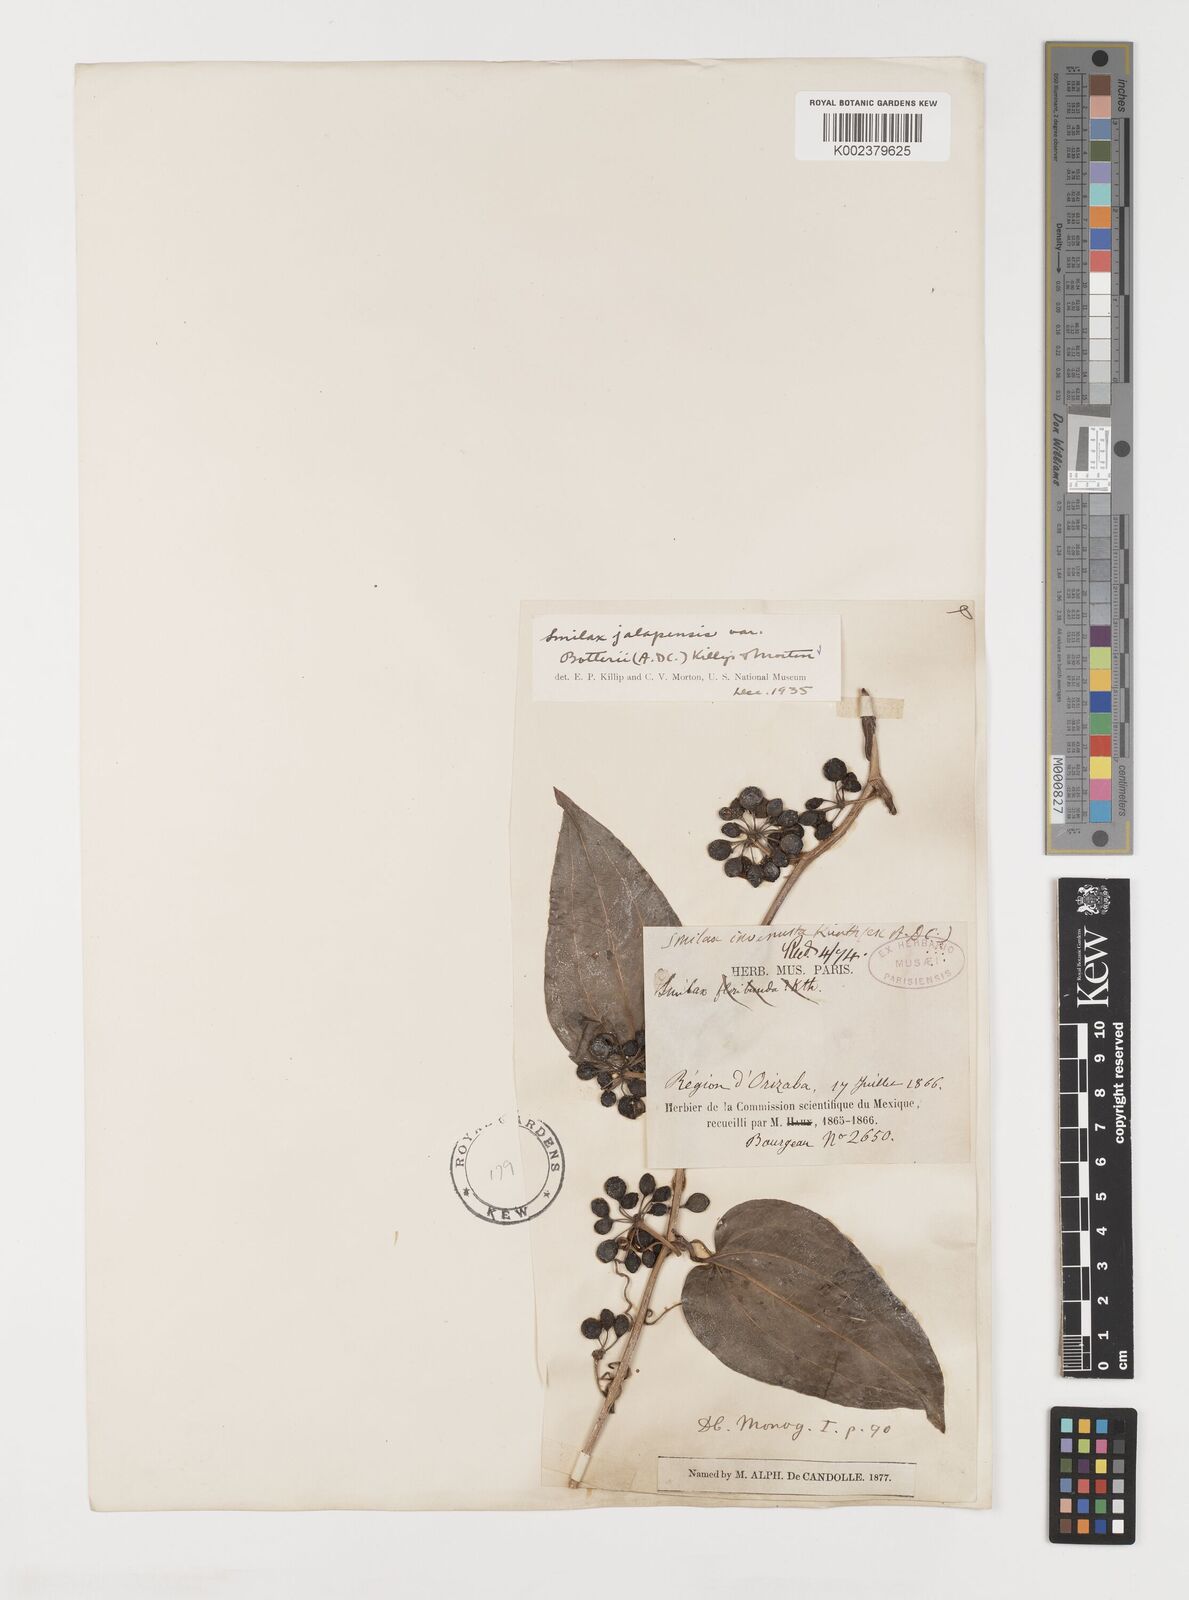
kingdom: Plantae
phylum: Tracheophyta
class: Liliopsida
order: Liliales
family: Smilacaceae
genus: Smilax
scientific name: Smilax moranensis
